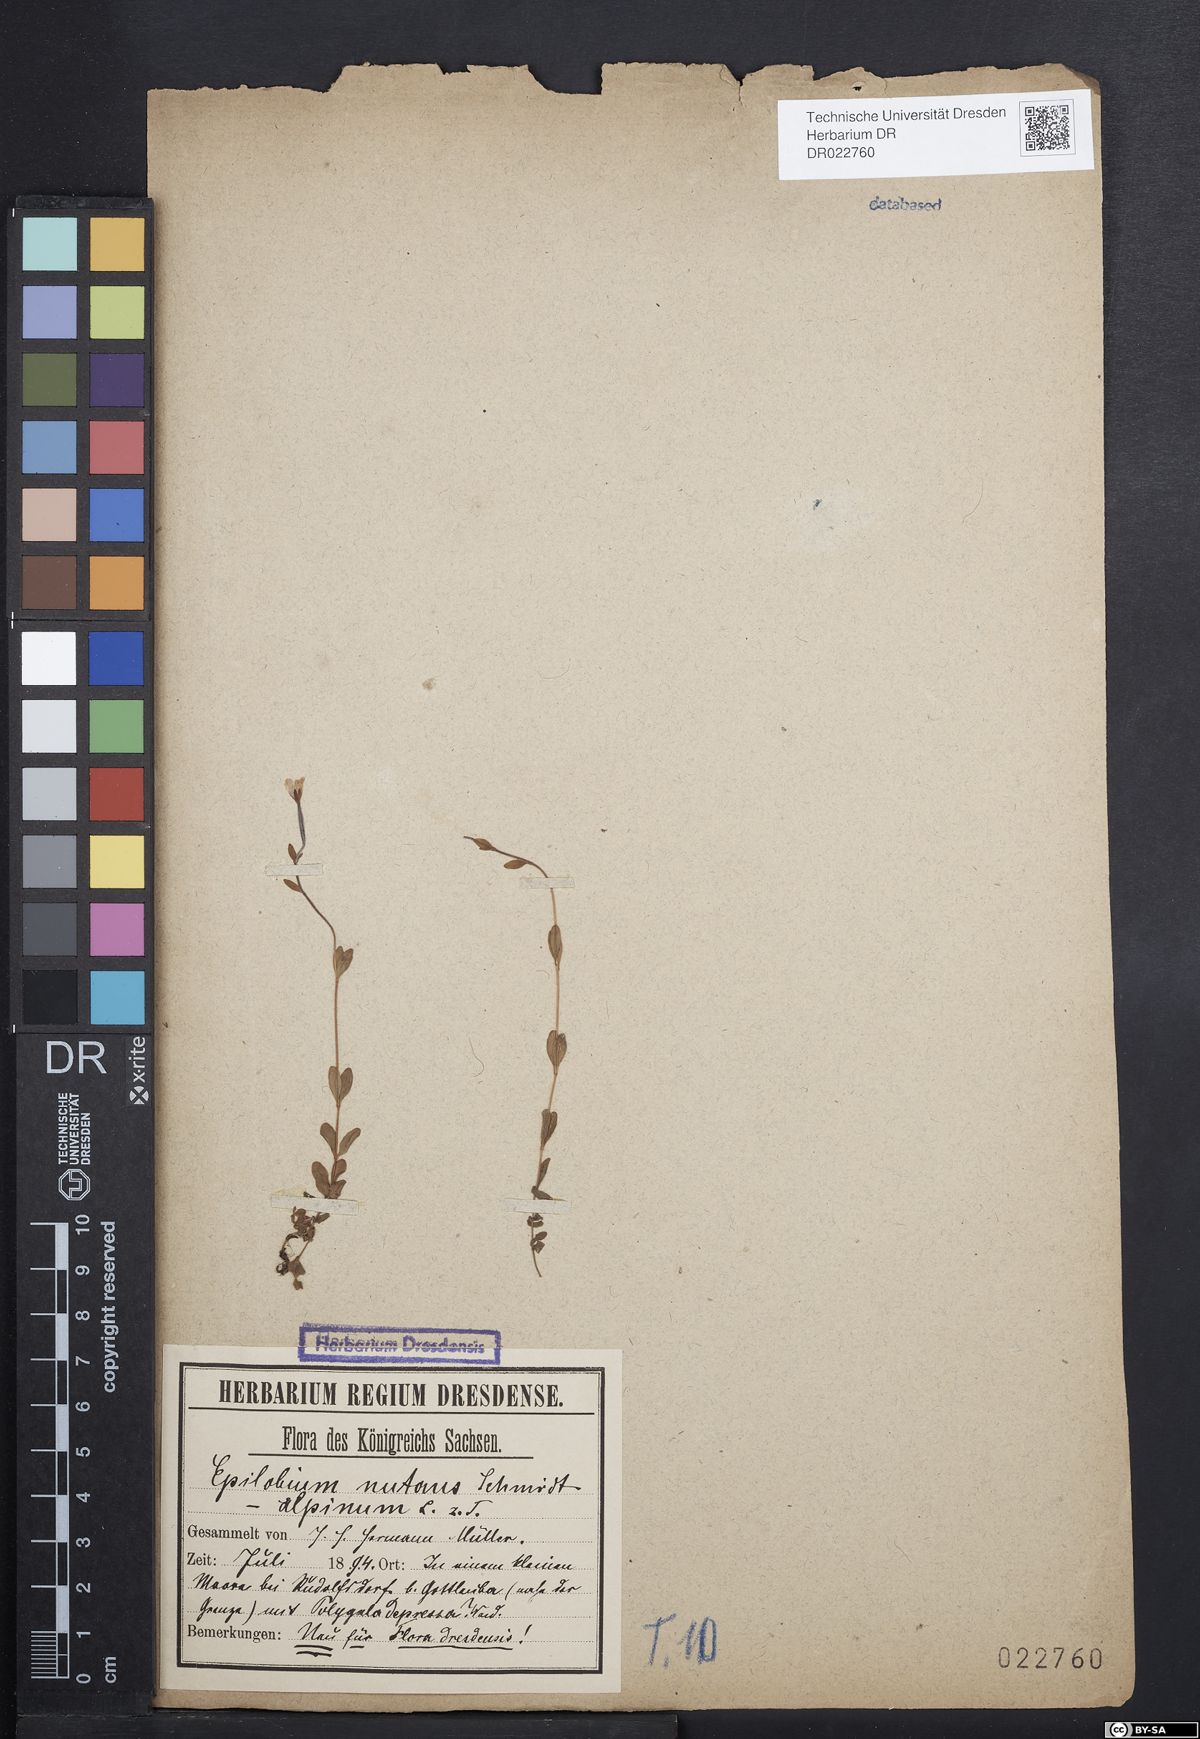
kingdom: Plantae
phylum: Tracheophyta
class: Magnoliopsida
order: Myrtales
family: Onagraceae
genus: Epilobium
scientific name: Epilobium nutans
